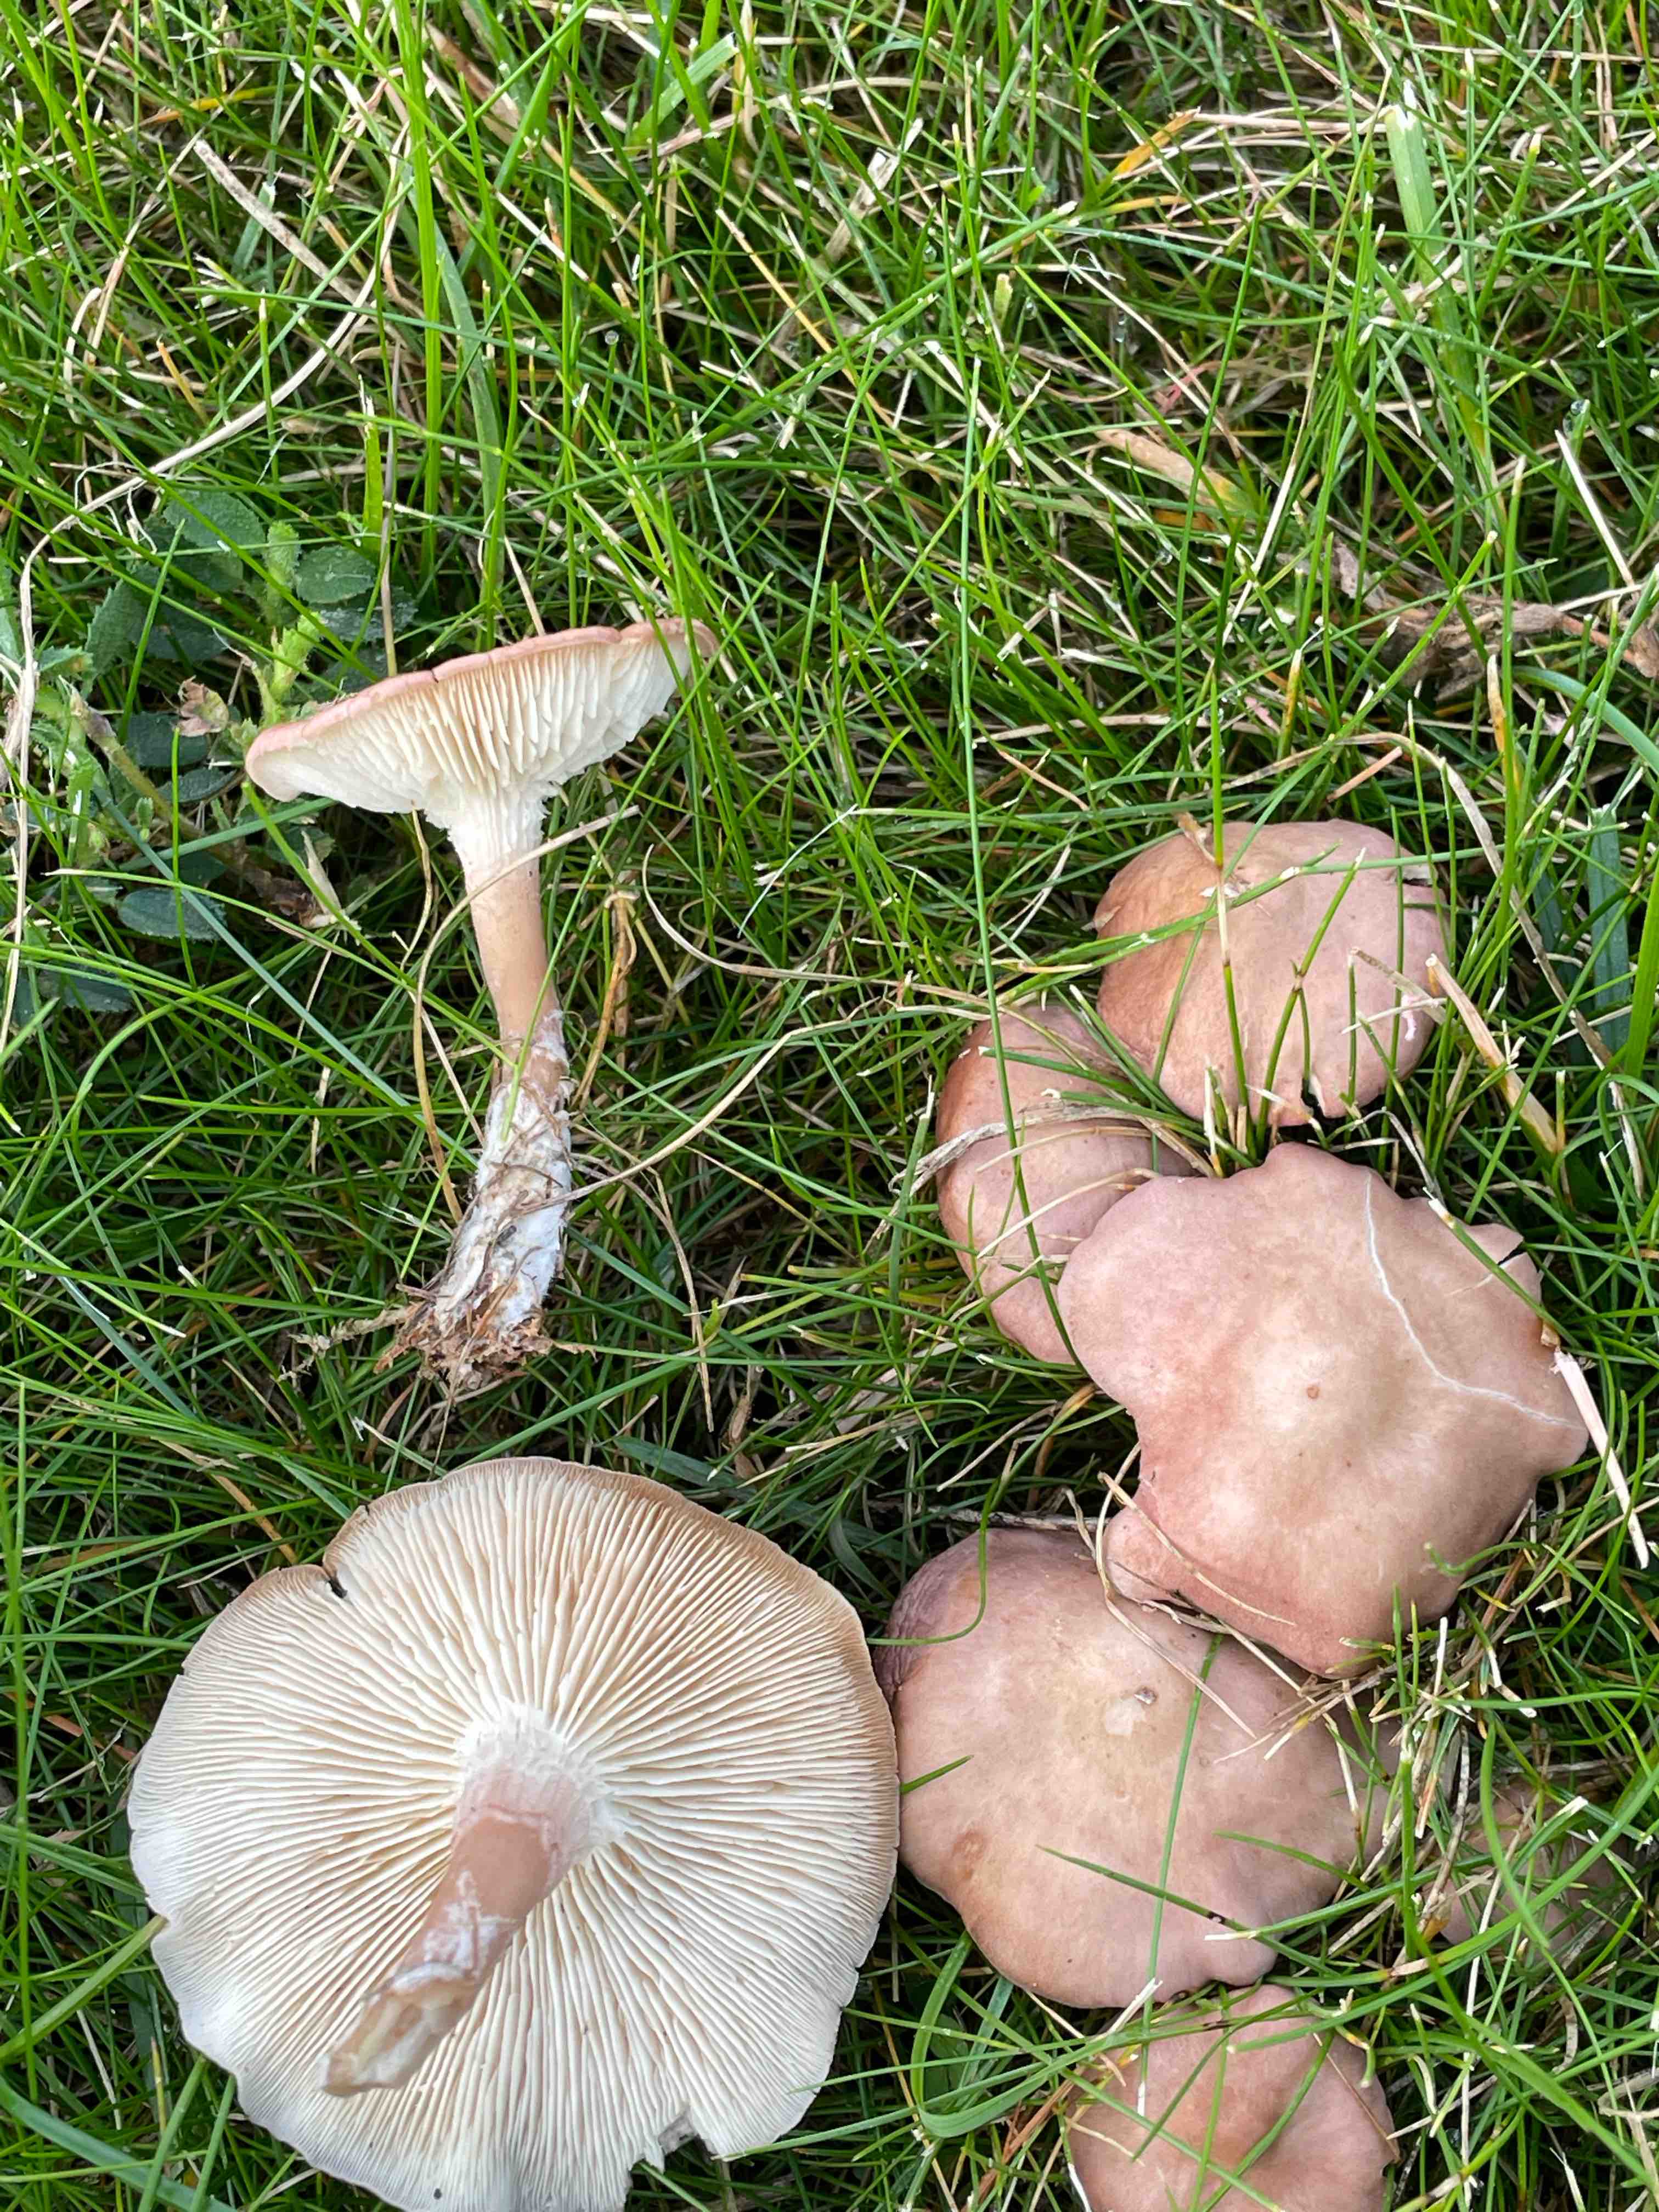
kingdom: Fungi
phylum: Basidiomycota
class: Agaricomycetes
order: Agaricales
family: Lyophyllaceae
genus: Calocybe
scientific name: Calocybe carnea
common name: rosa fagerhat
